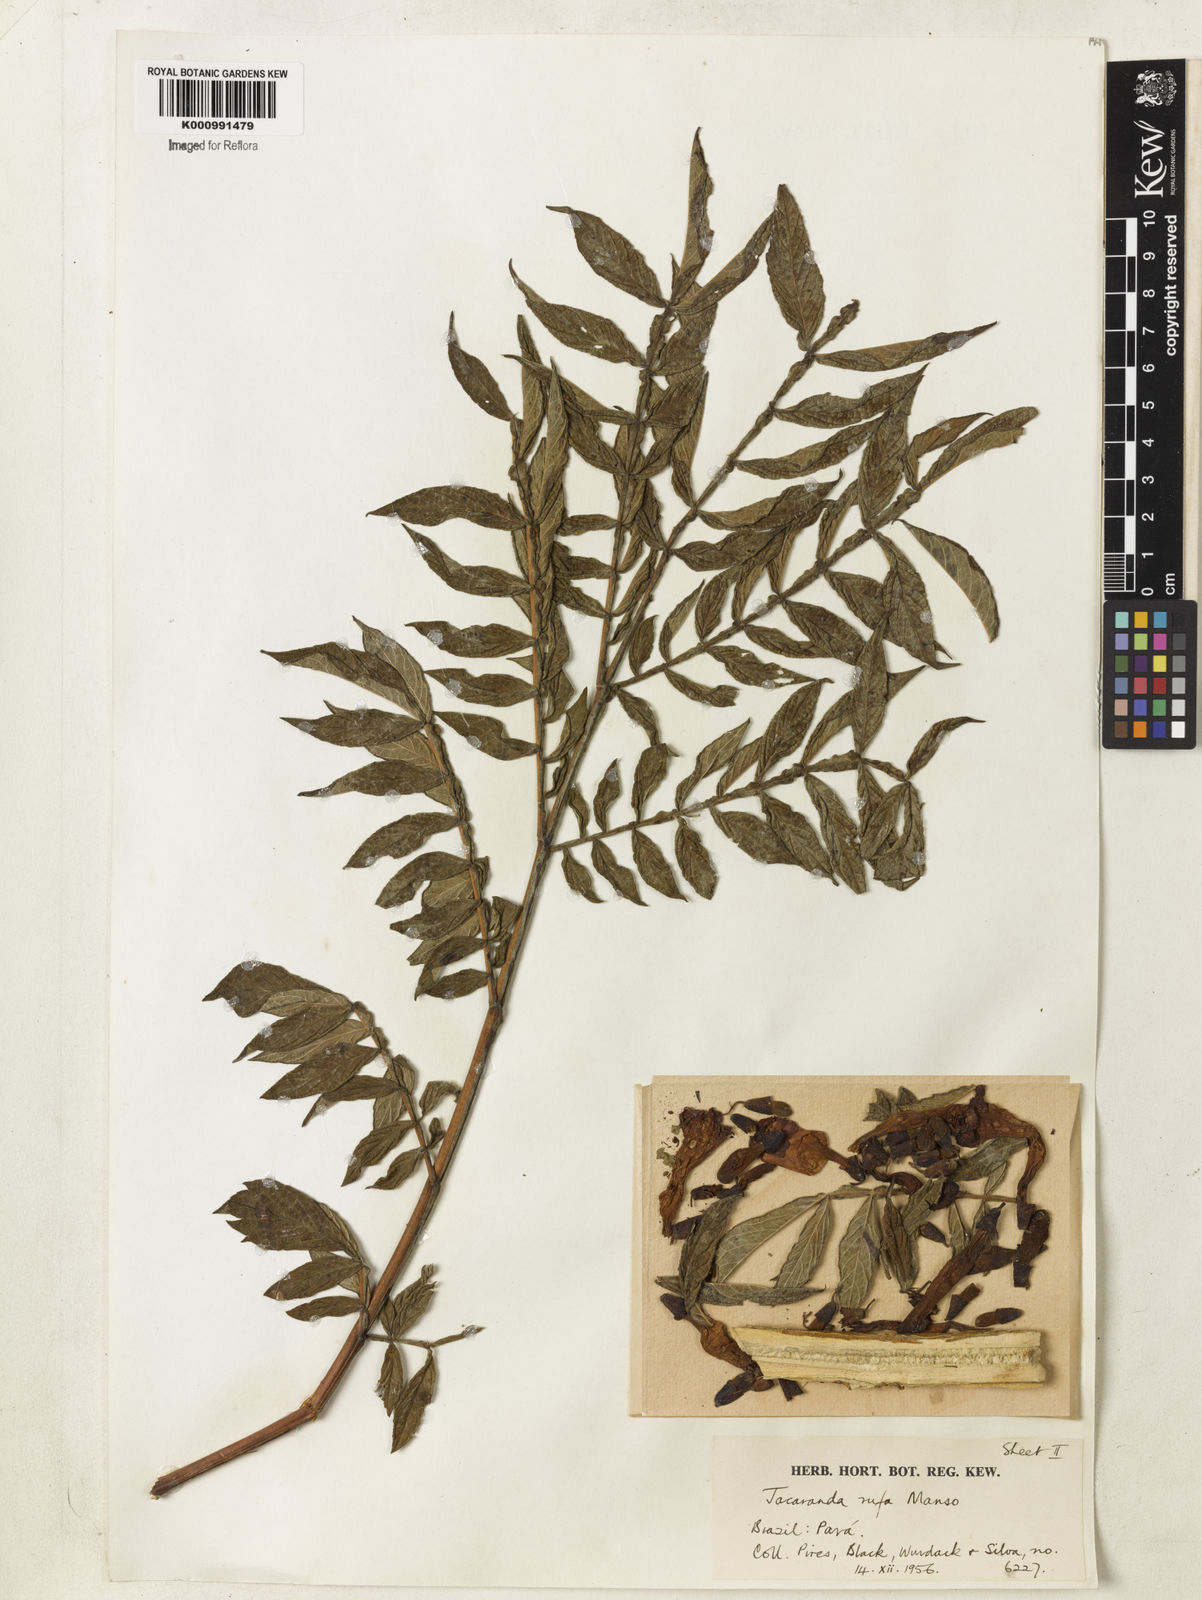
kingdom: Plantae
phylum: Tracheophyta
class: Magnoliopsida
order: Lamiales
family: Bignoniaceae
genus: Jacaranda
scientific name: Jacaranda rufa
